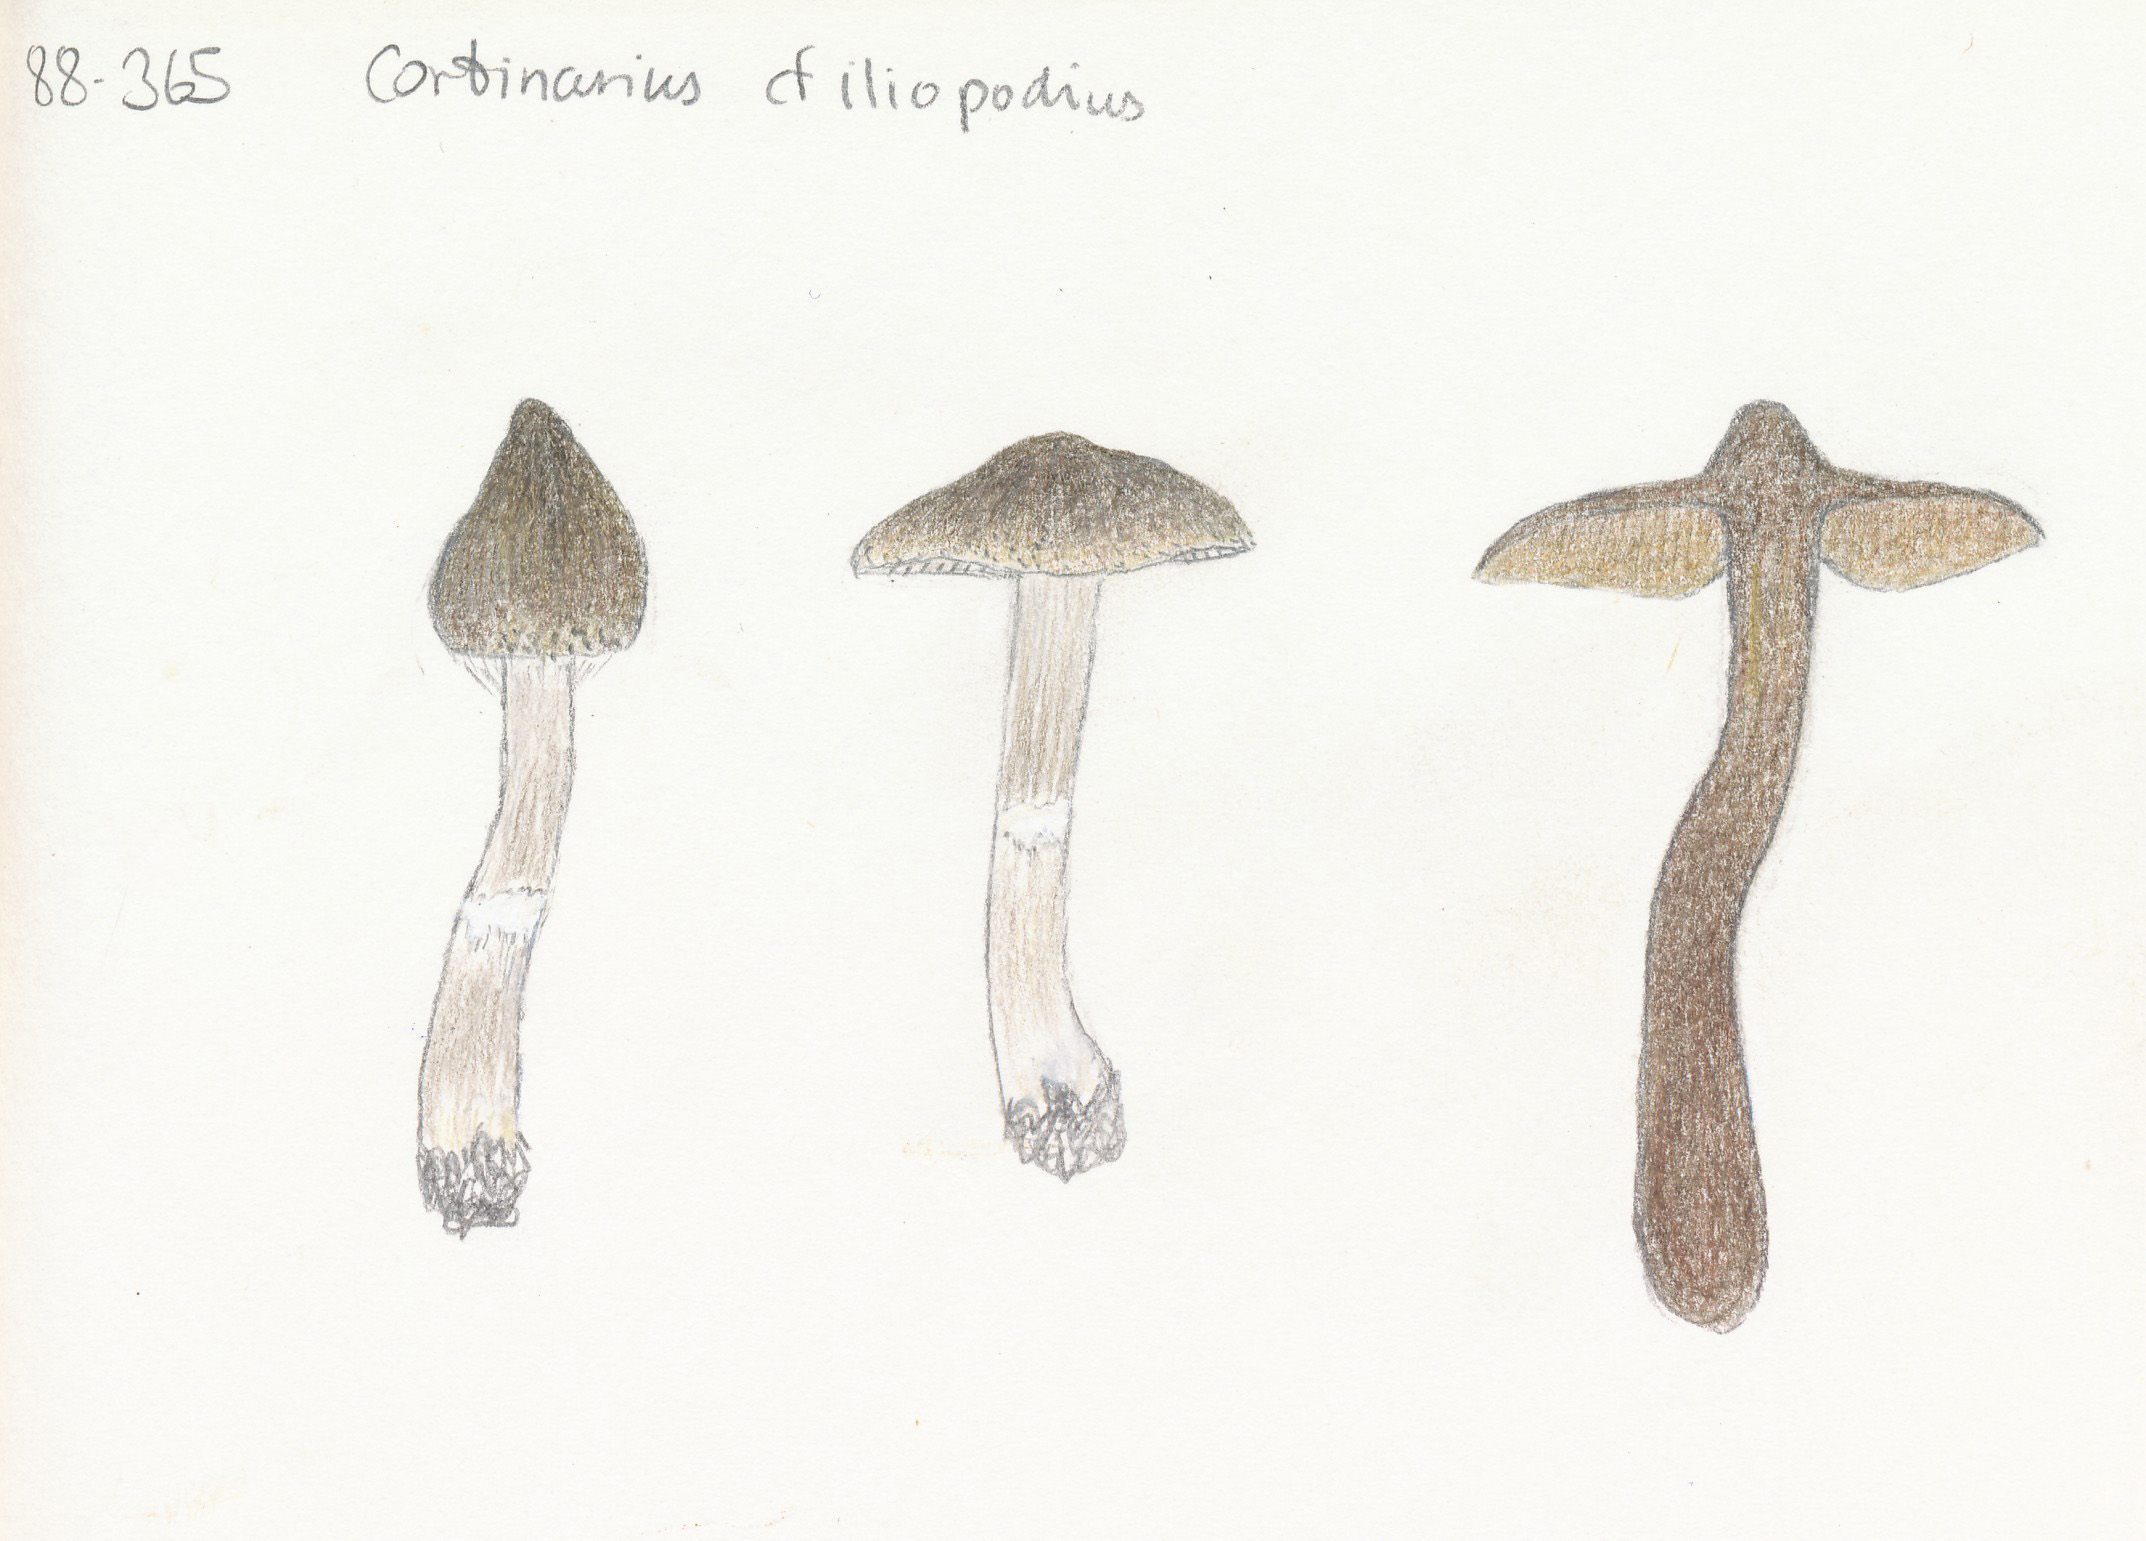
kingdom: Fungi
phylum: Basidiomycota
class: Agaricomycetes
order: Agaricales
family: Cortinariaceae
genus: Cortinarius
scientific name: Cortinarius vernus
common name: sommer-slørhat
